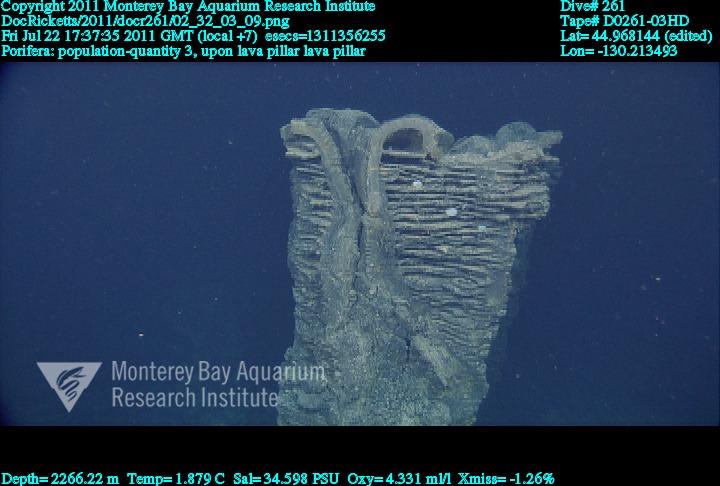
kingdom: Animalia
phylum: Porifera
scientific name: Porifera
